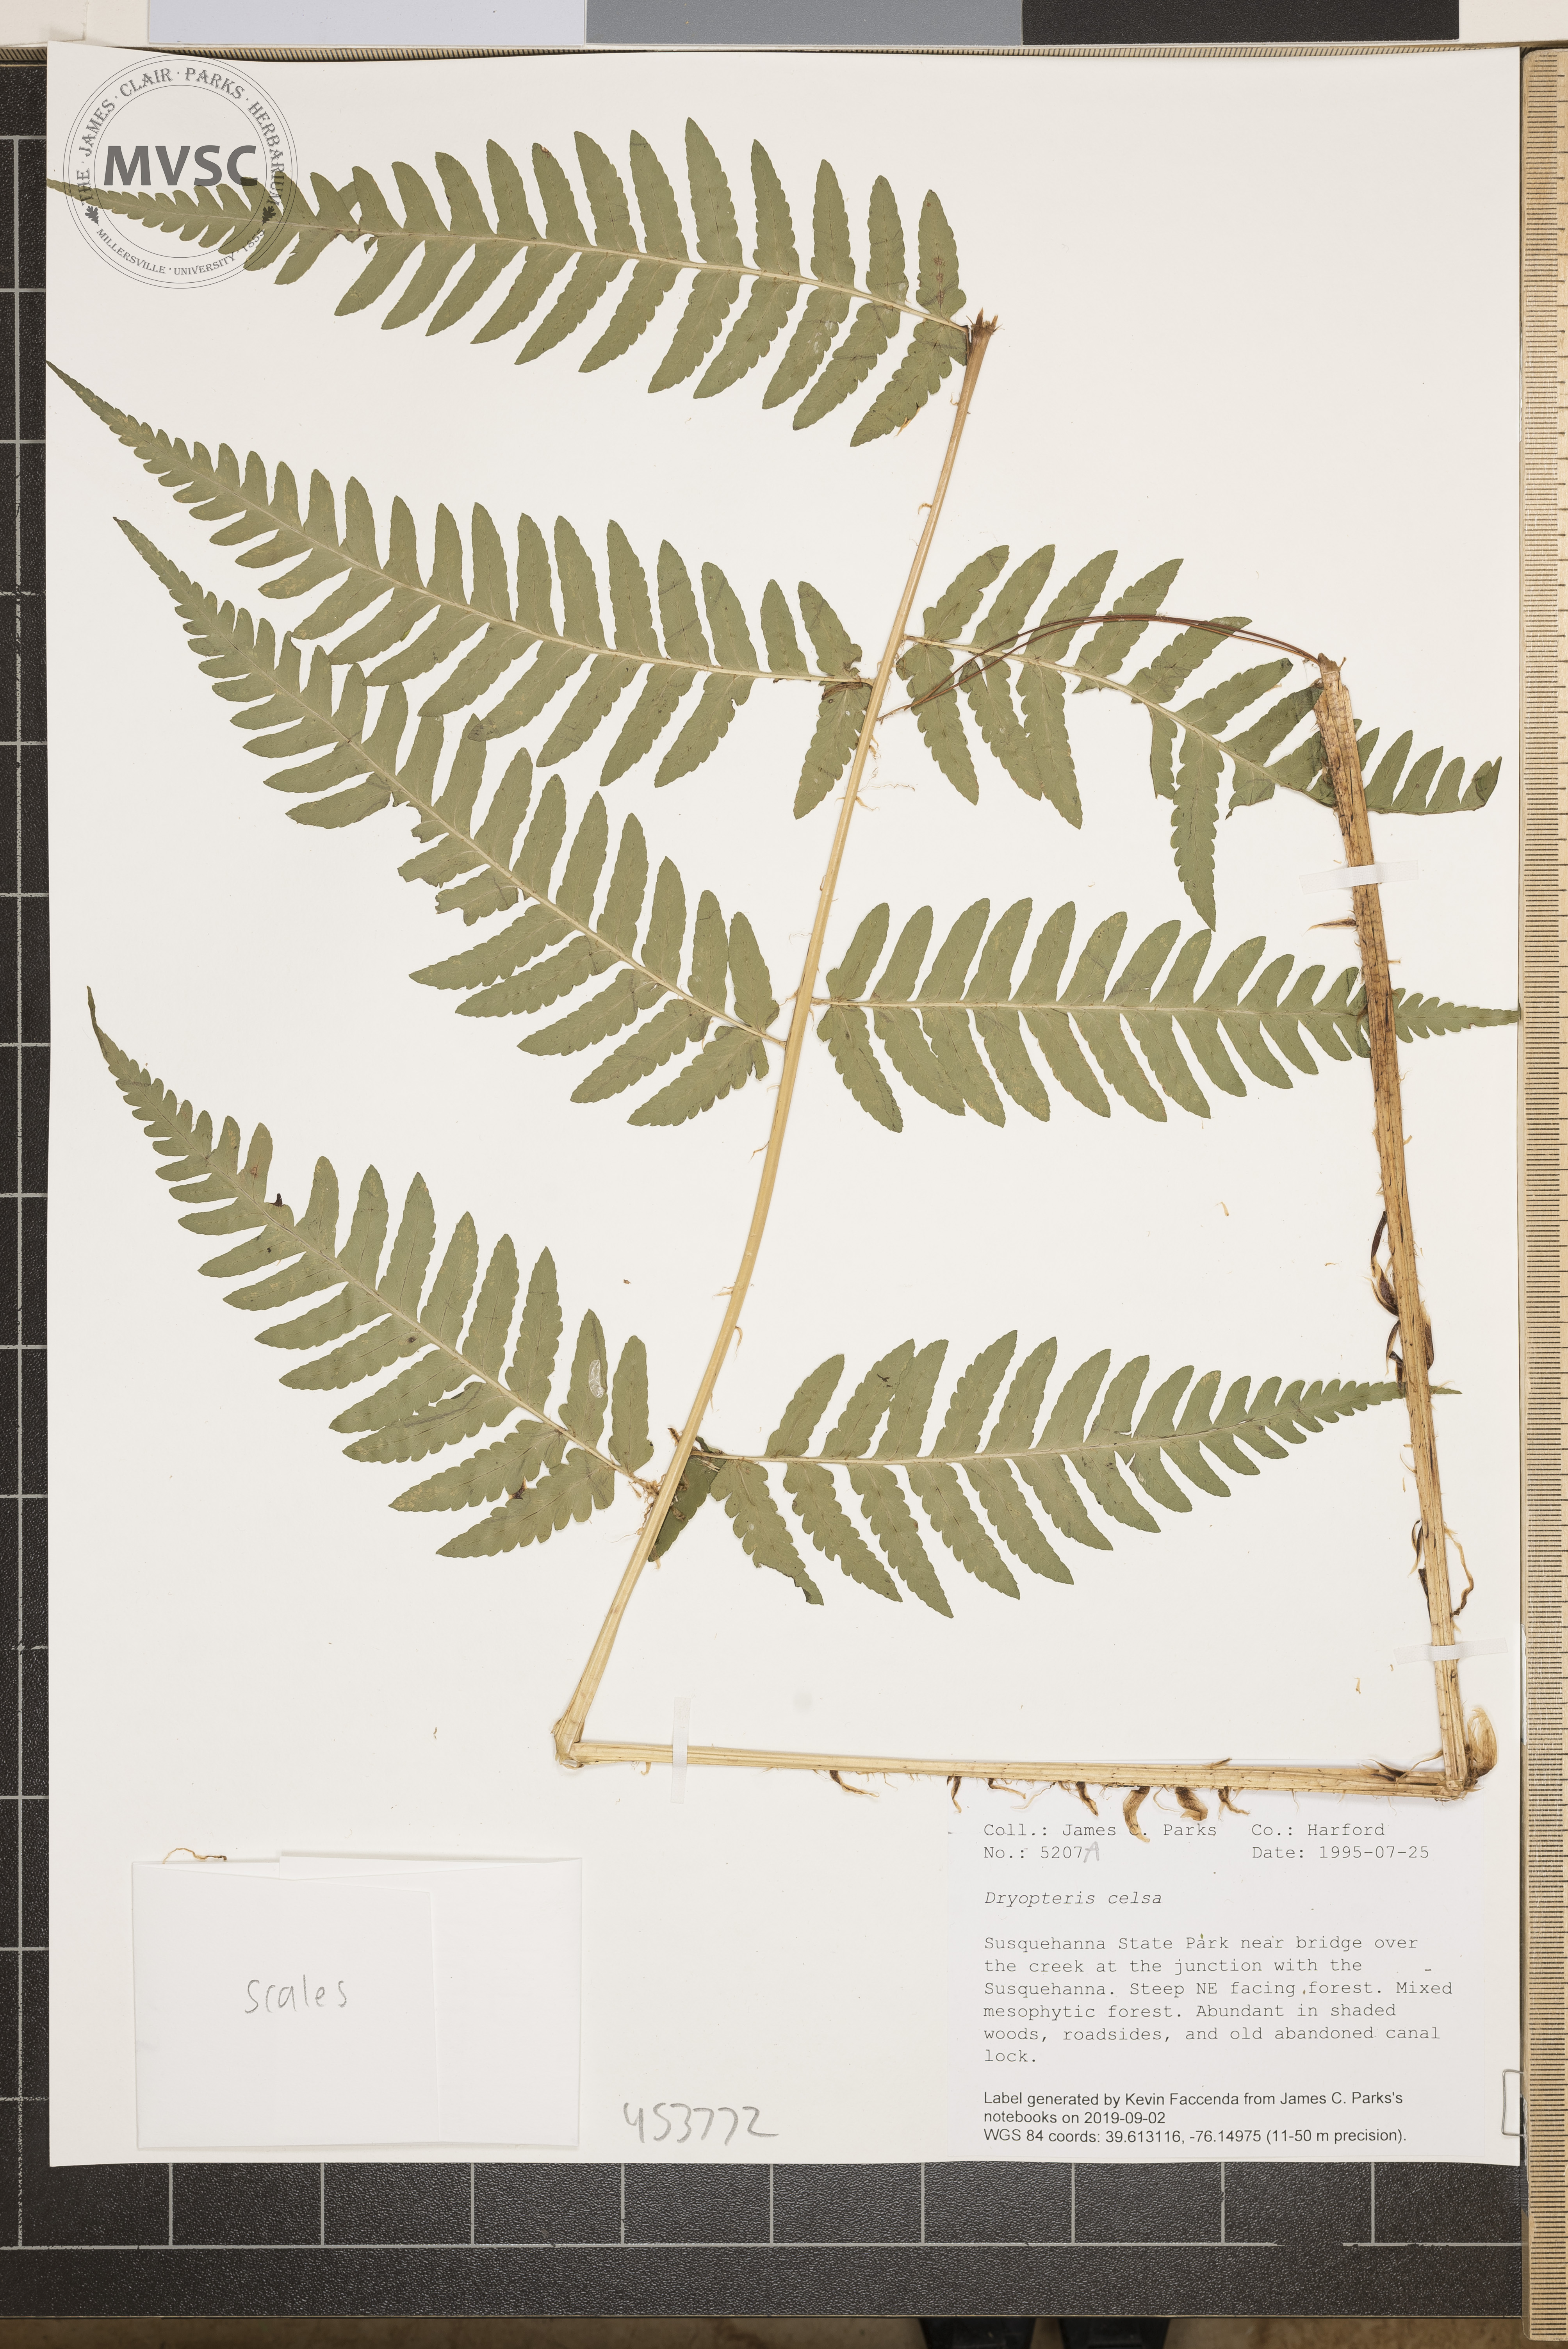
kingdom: Plantae
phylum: Tracheophyta
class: Polypodiopsida
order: Polypodiales
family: Dryopteridaceae
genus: Dryopteris
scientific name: Dryopteris celsa
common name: Log fern
